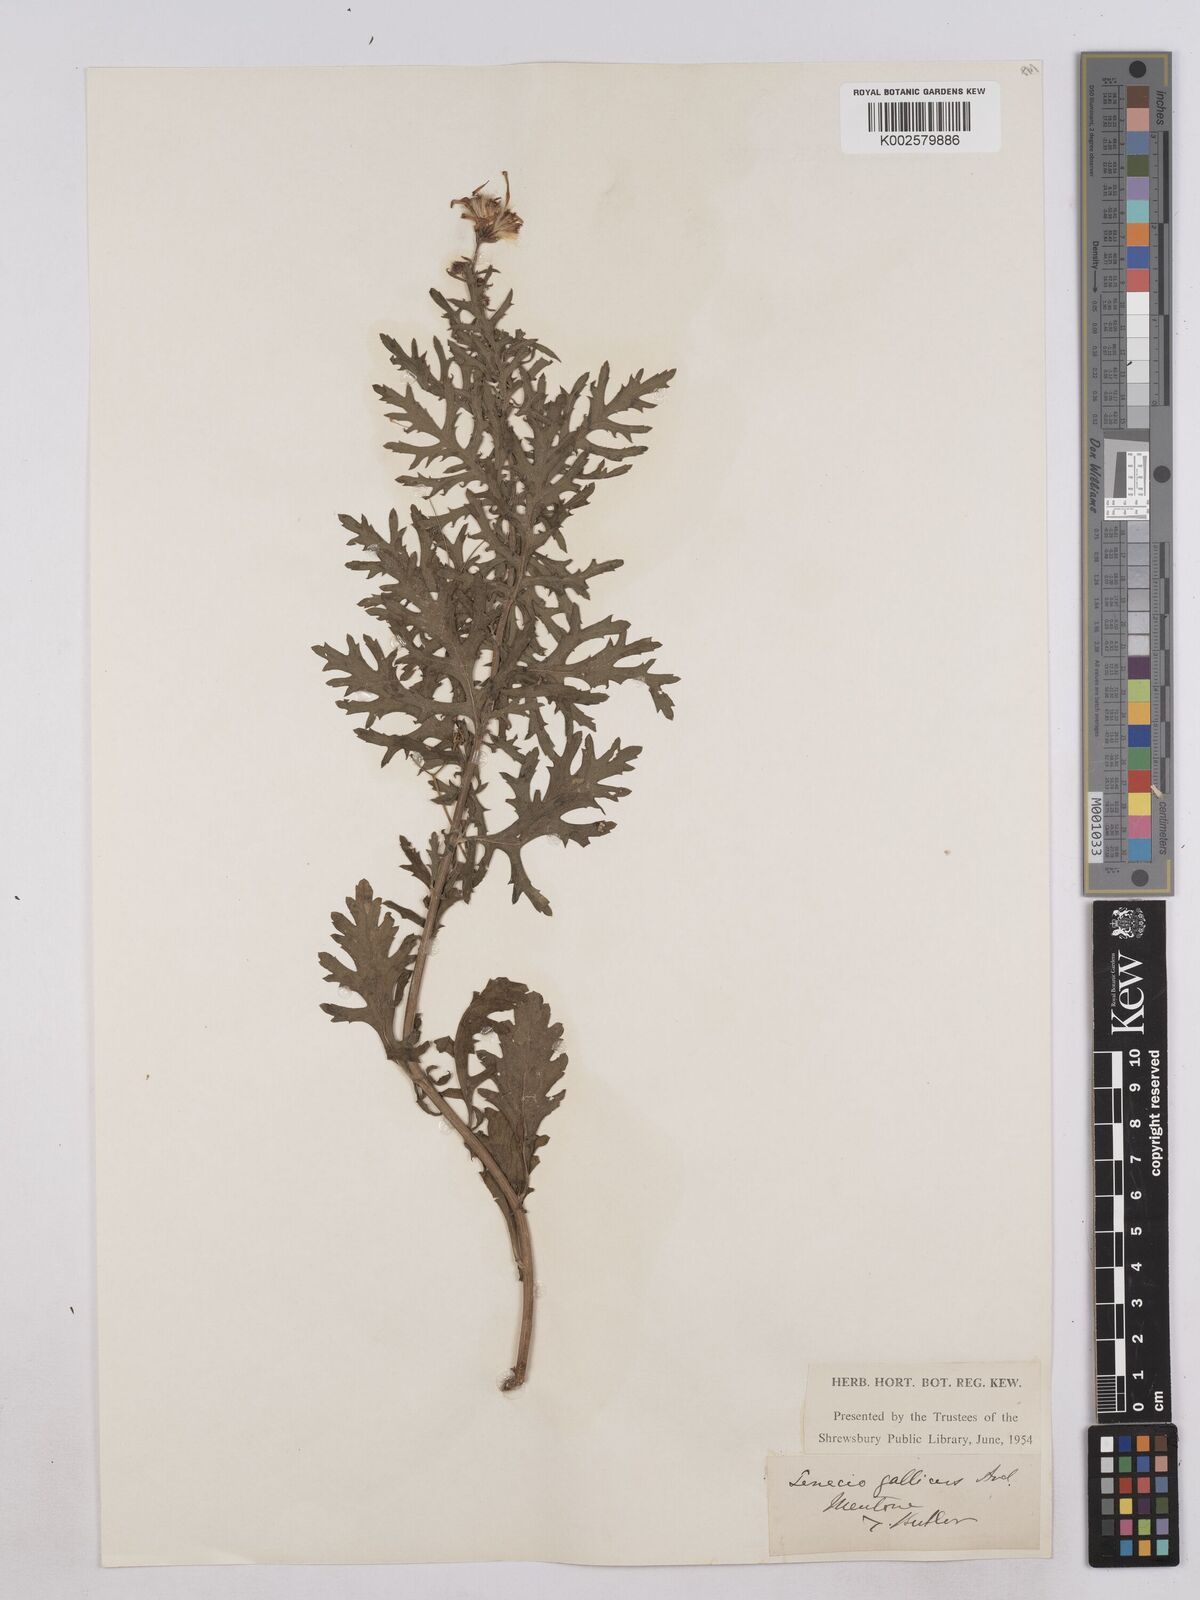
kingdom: Plantae
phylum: Tracheophyta
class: Magnoliopsida
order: Asterales
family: Asteraceae
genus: Senecio
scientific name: Senecio gallicus
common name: French groundsel
